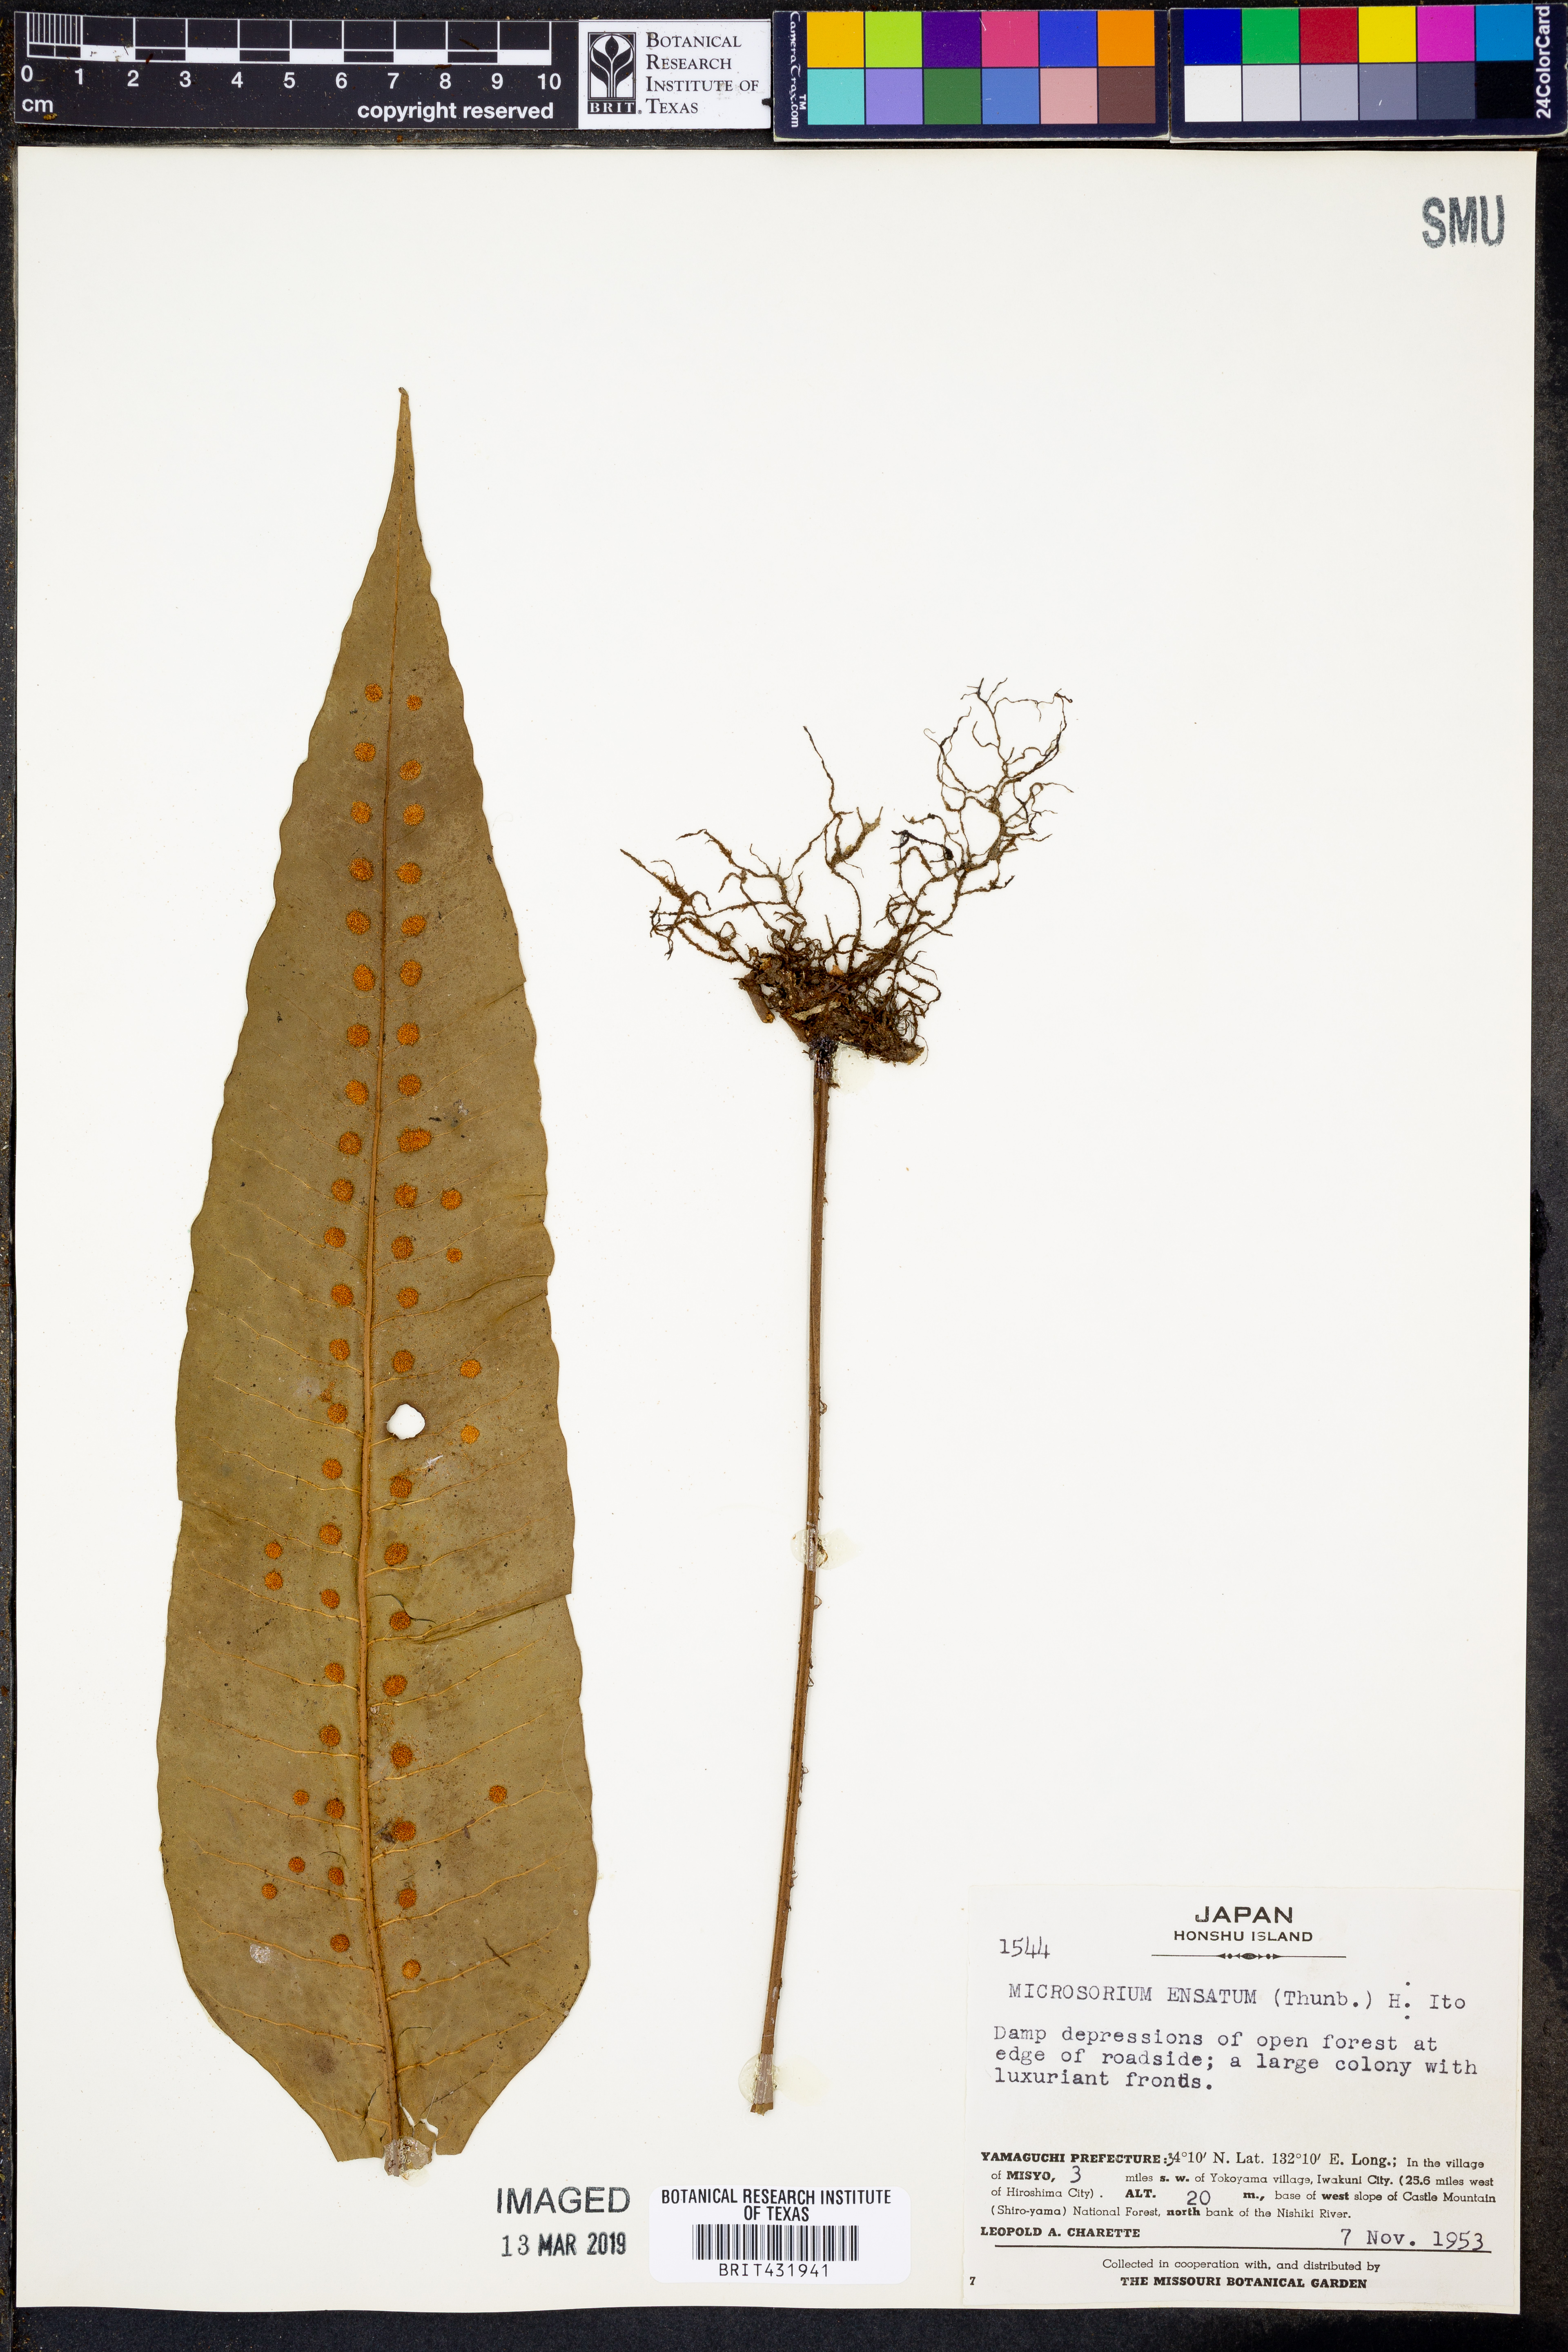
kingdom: Plantae
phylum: Tracheophyta
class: Polypodiopsida
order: Polypodiales
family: Polypodiaceae
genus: Lepisorus
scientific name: Lepisorus ensatus
